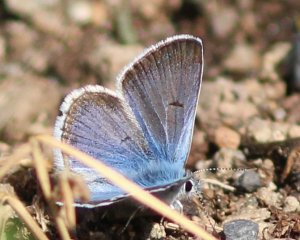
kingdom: Animalia
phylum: Arthropoda
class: Insecta
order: Lepidoptera
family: Lycaenidae
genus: Plebejus
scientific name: Plebejus saepiolus
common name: Greenish Blue
